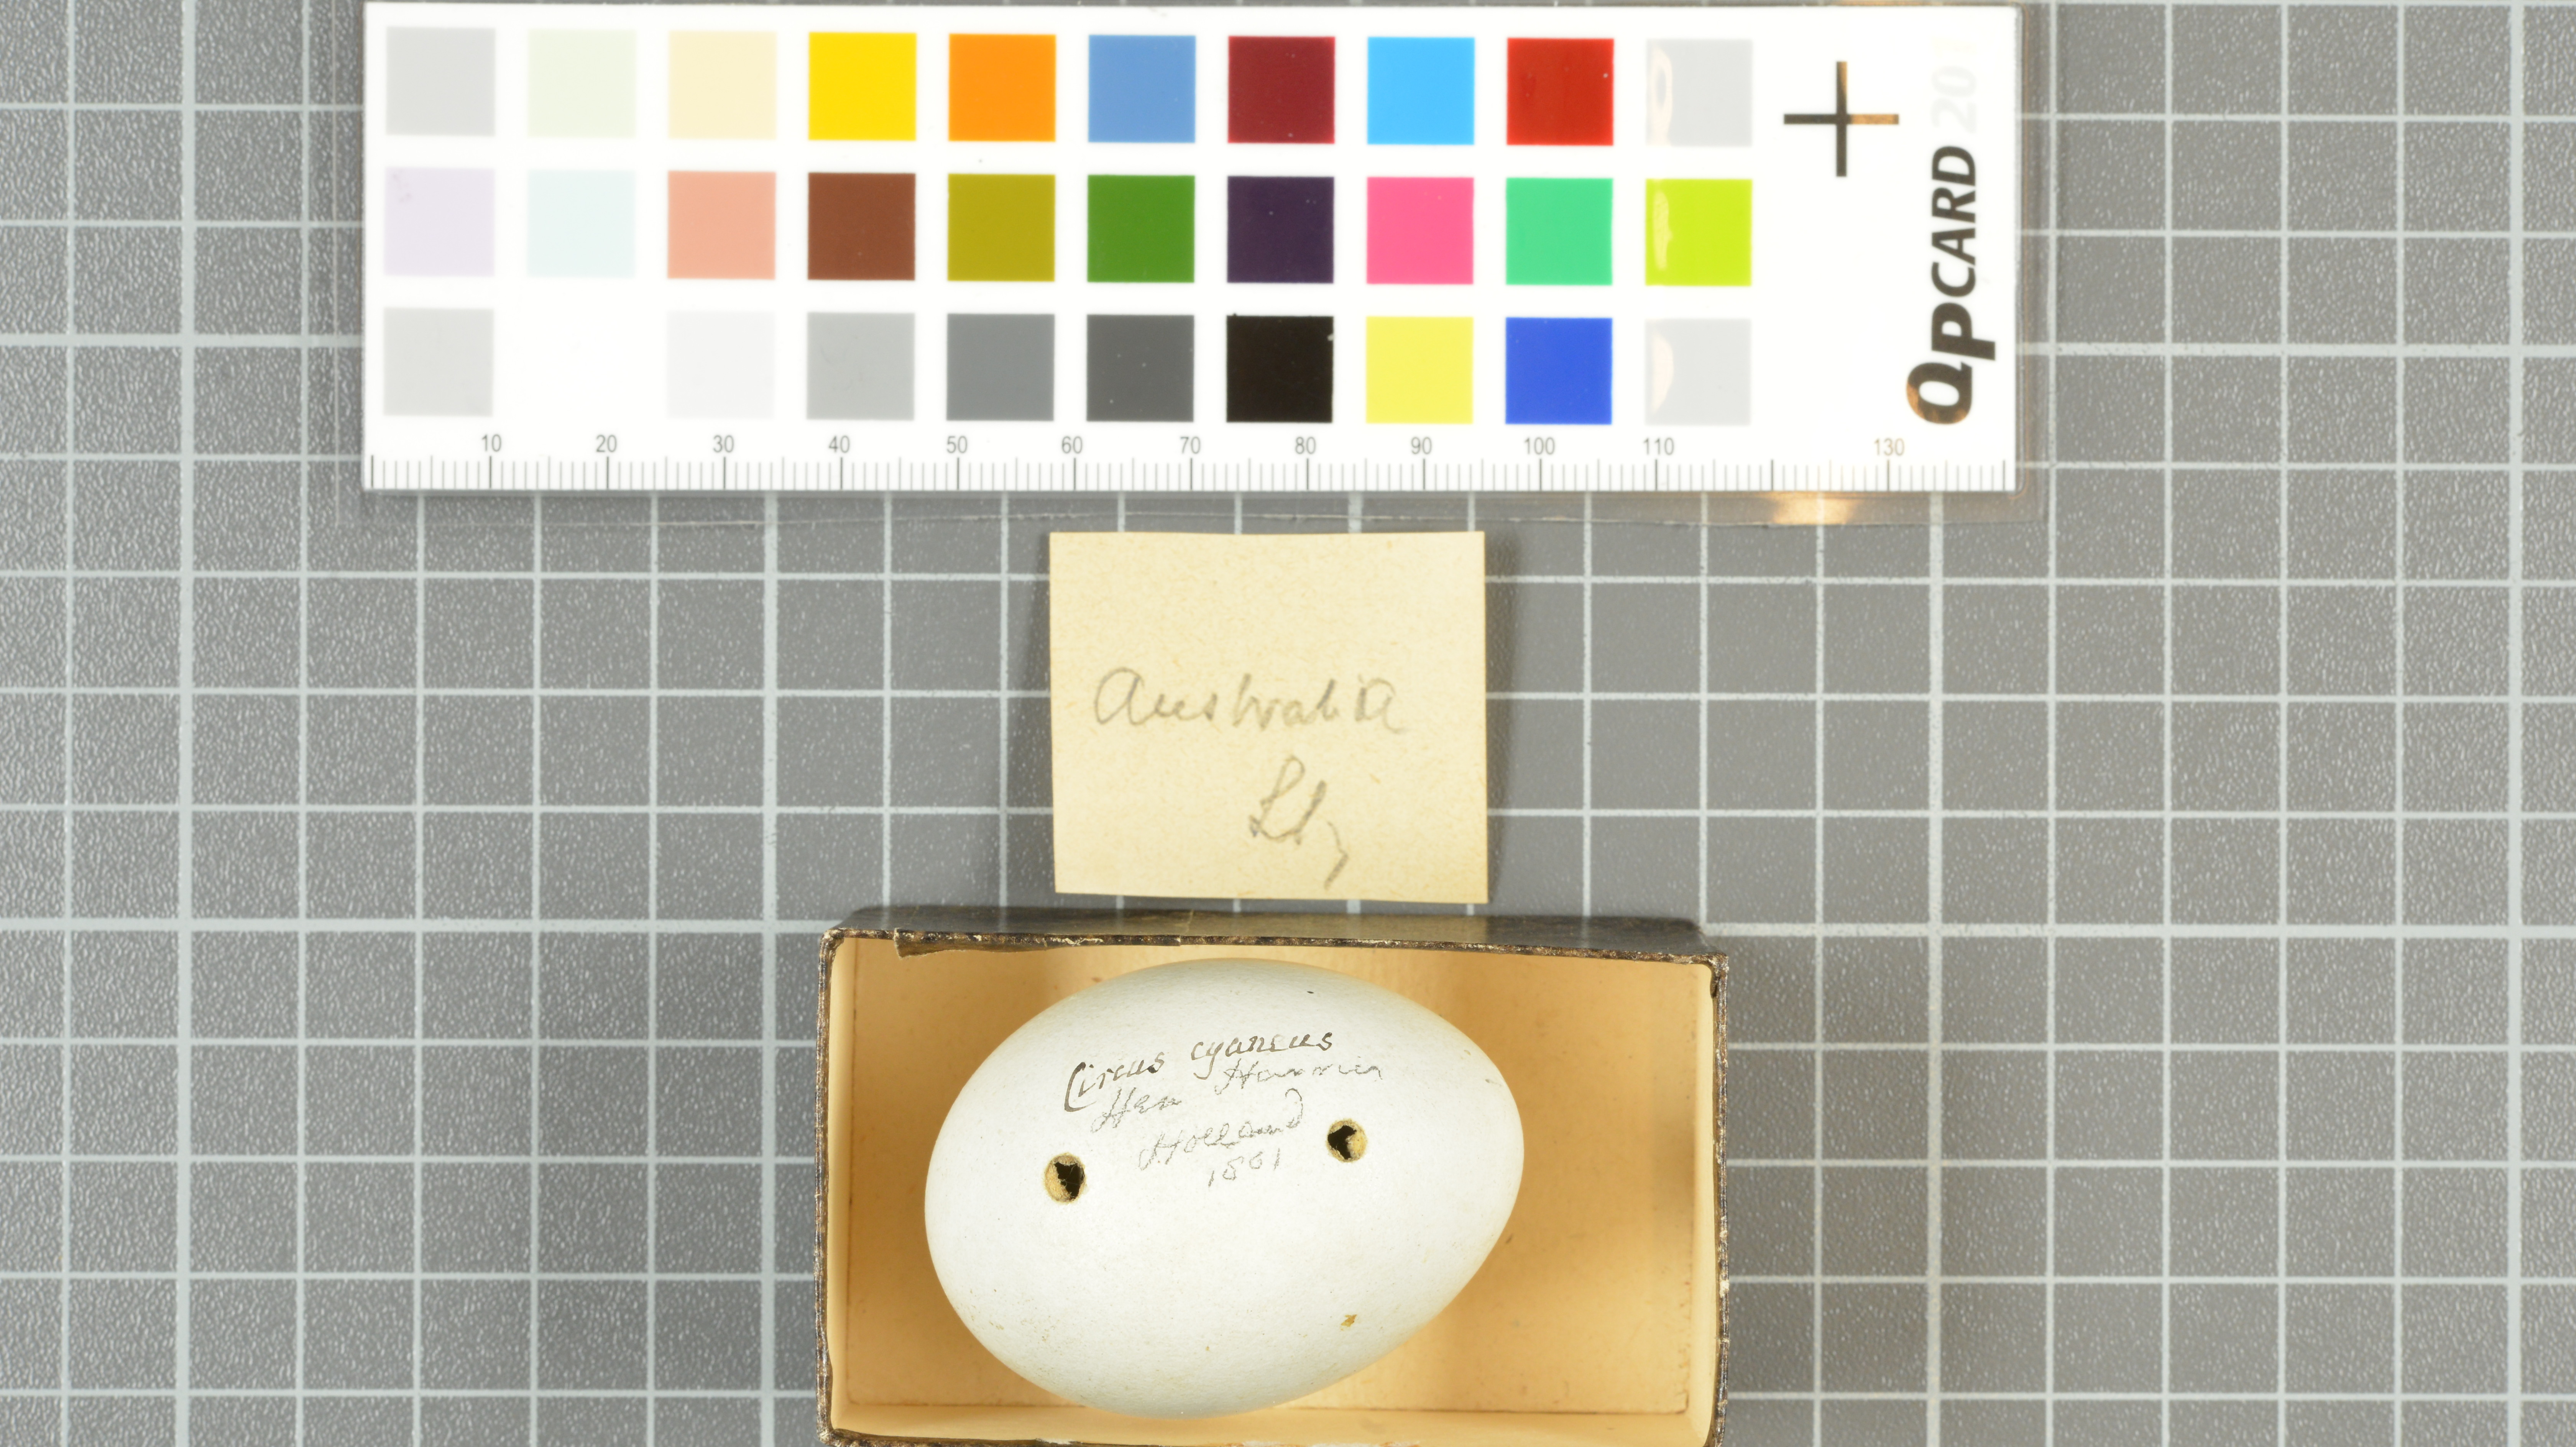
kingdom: Animalia
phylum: Chordata
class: Aves
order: Accipitriformes
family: Accipitridae
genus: Circus
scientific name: Circus cyaneus
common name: Hen harrier
